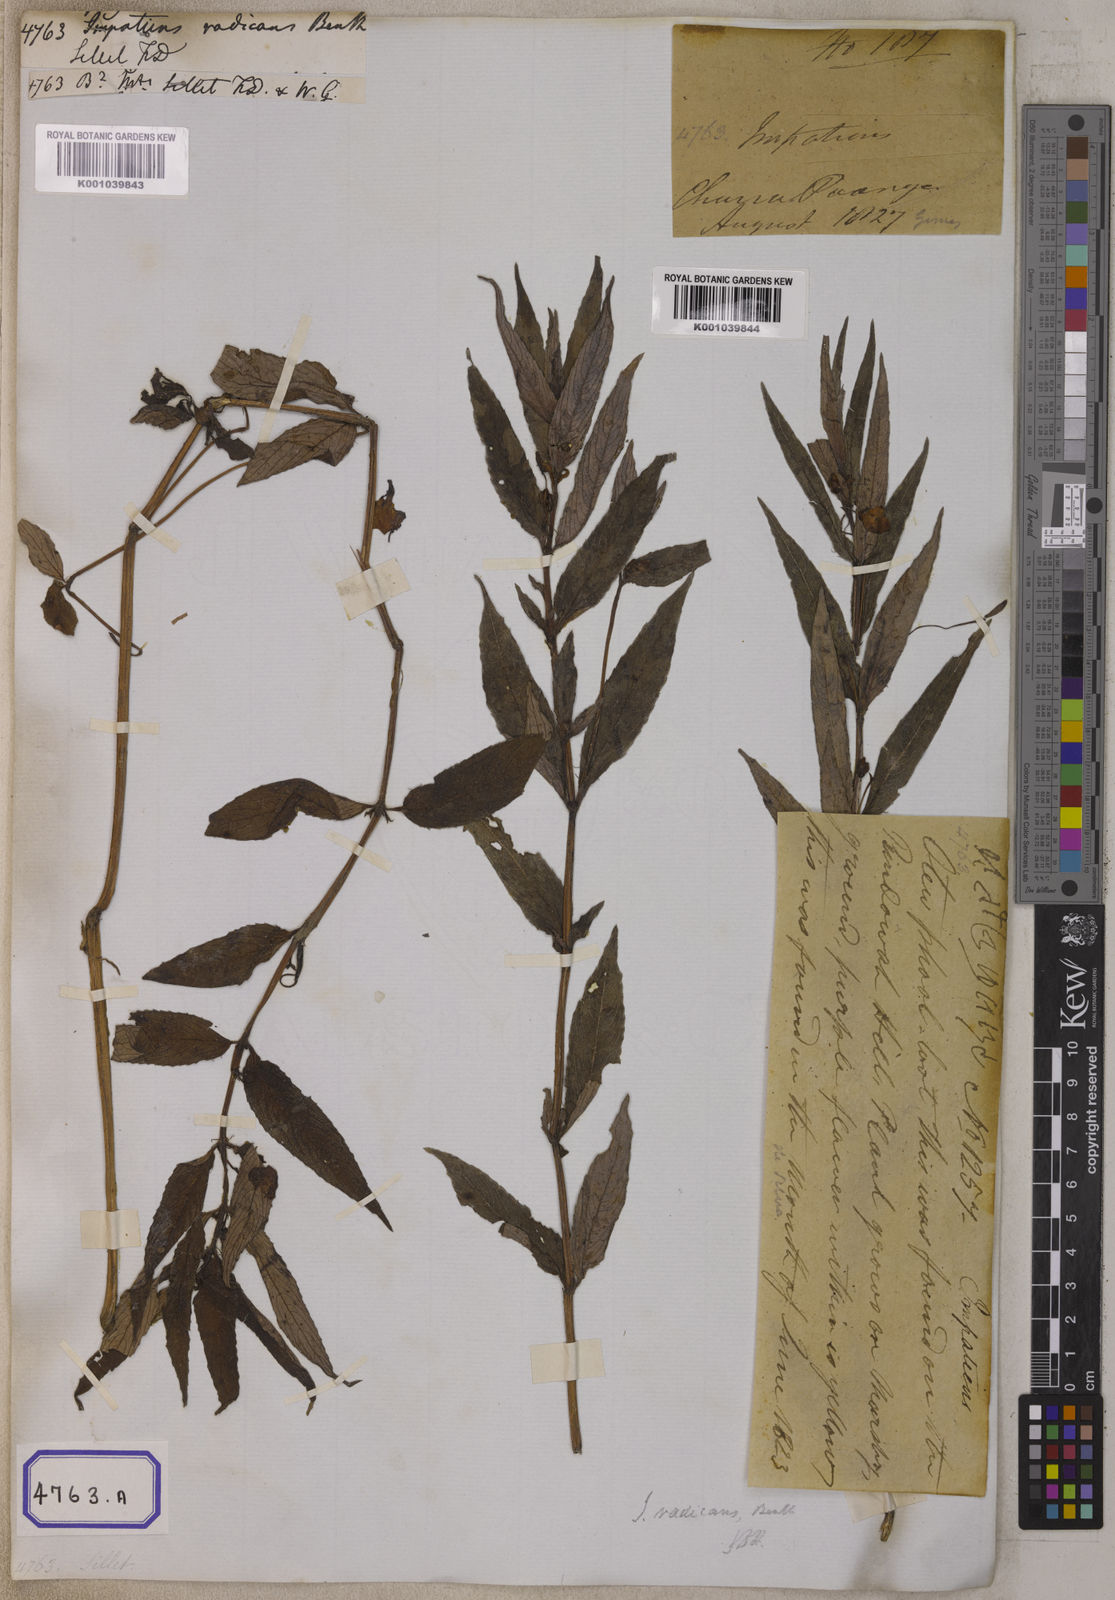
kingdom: Plantae
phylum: Tracheophyta
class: Magnoliopsida
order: Ericales
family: Balsaminaceae
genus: Impatiens
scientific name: Impatiens
